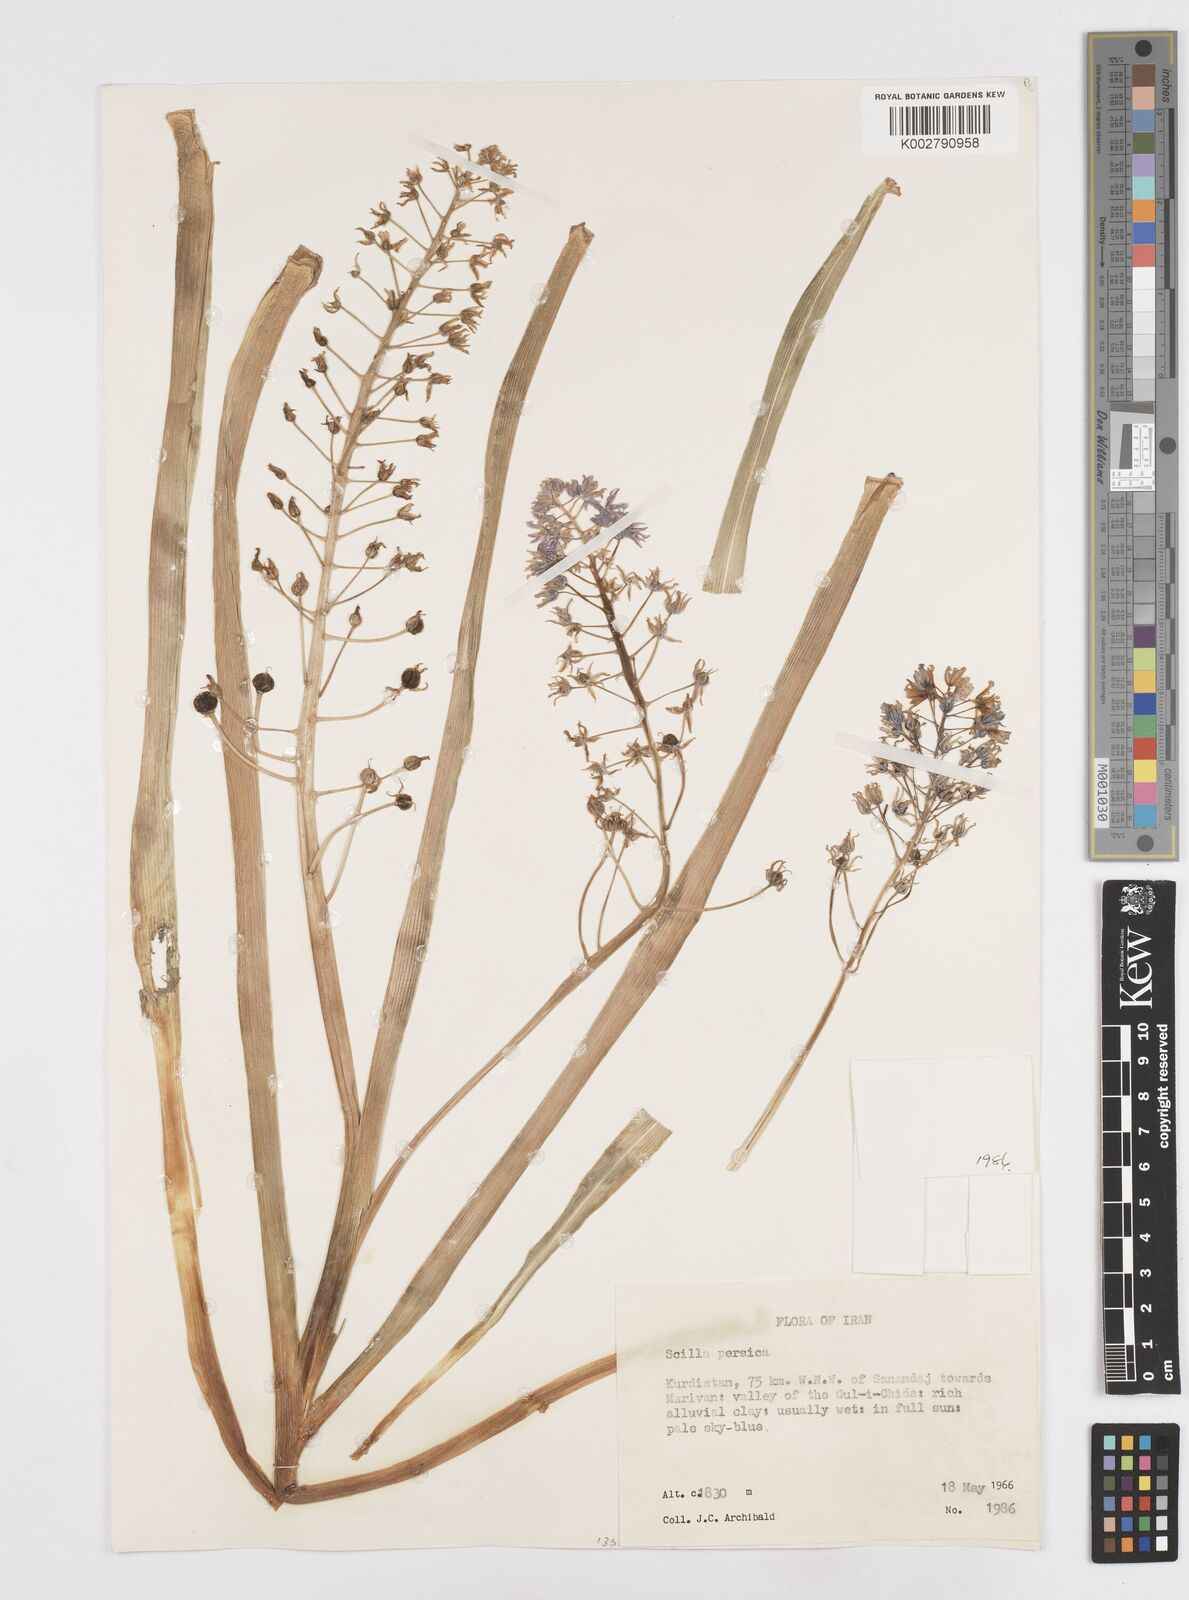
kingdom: Plantae
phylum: Tracheophyta
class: Liliopsida
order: Asparagales
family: Asparagaceae
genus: Zagrosia
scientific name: Zagrosia persica
